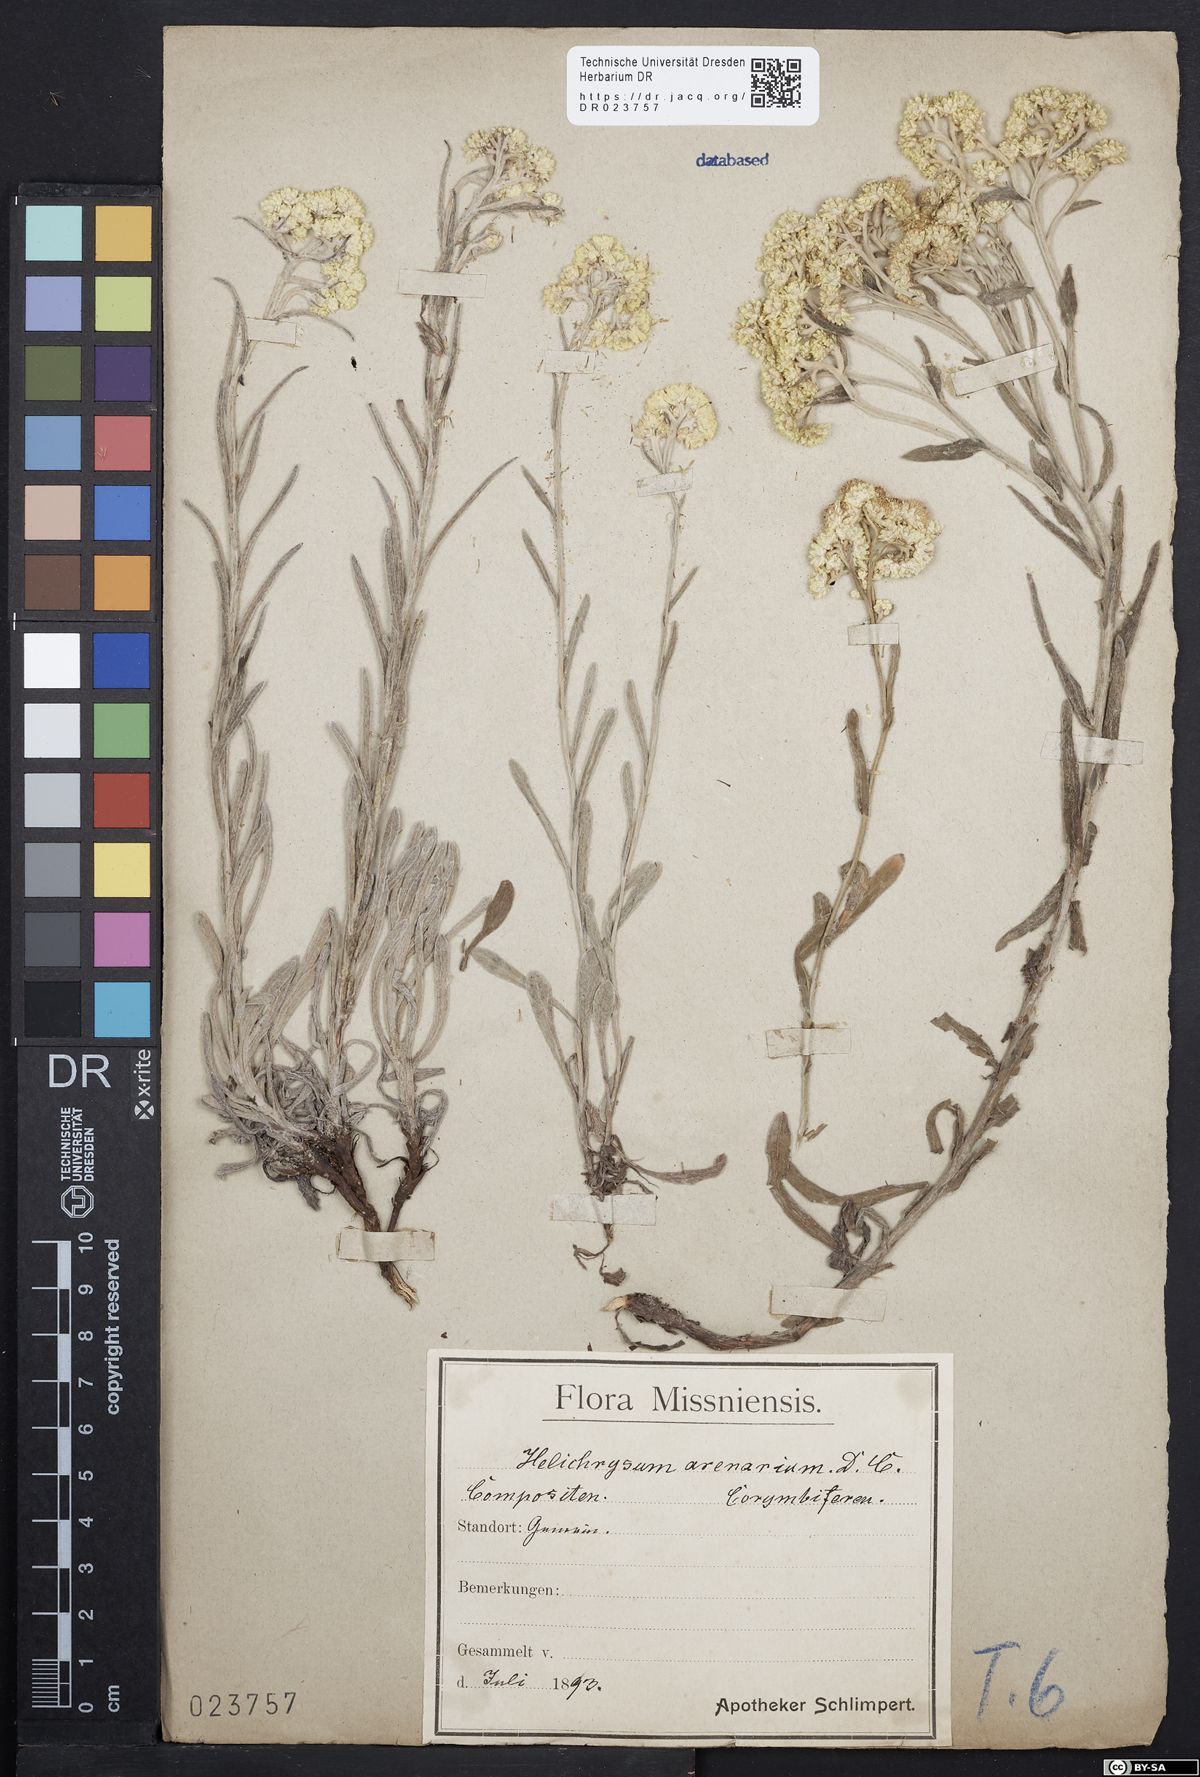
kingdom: Plantae
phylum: Tracheophyta
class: Magnoliopsida
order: Asterales
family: Asteraceae
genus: Helichrysum
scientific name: Helichrysum arenarium
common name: Strawflower
